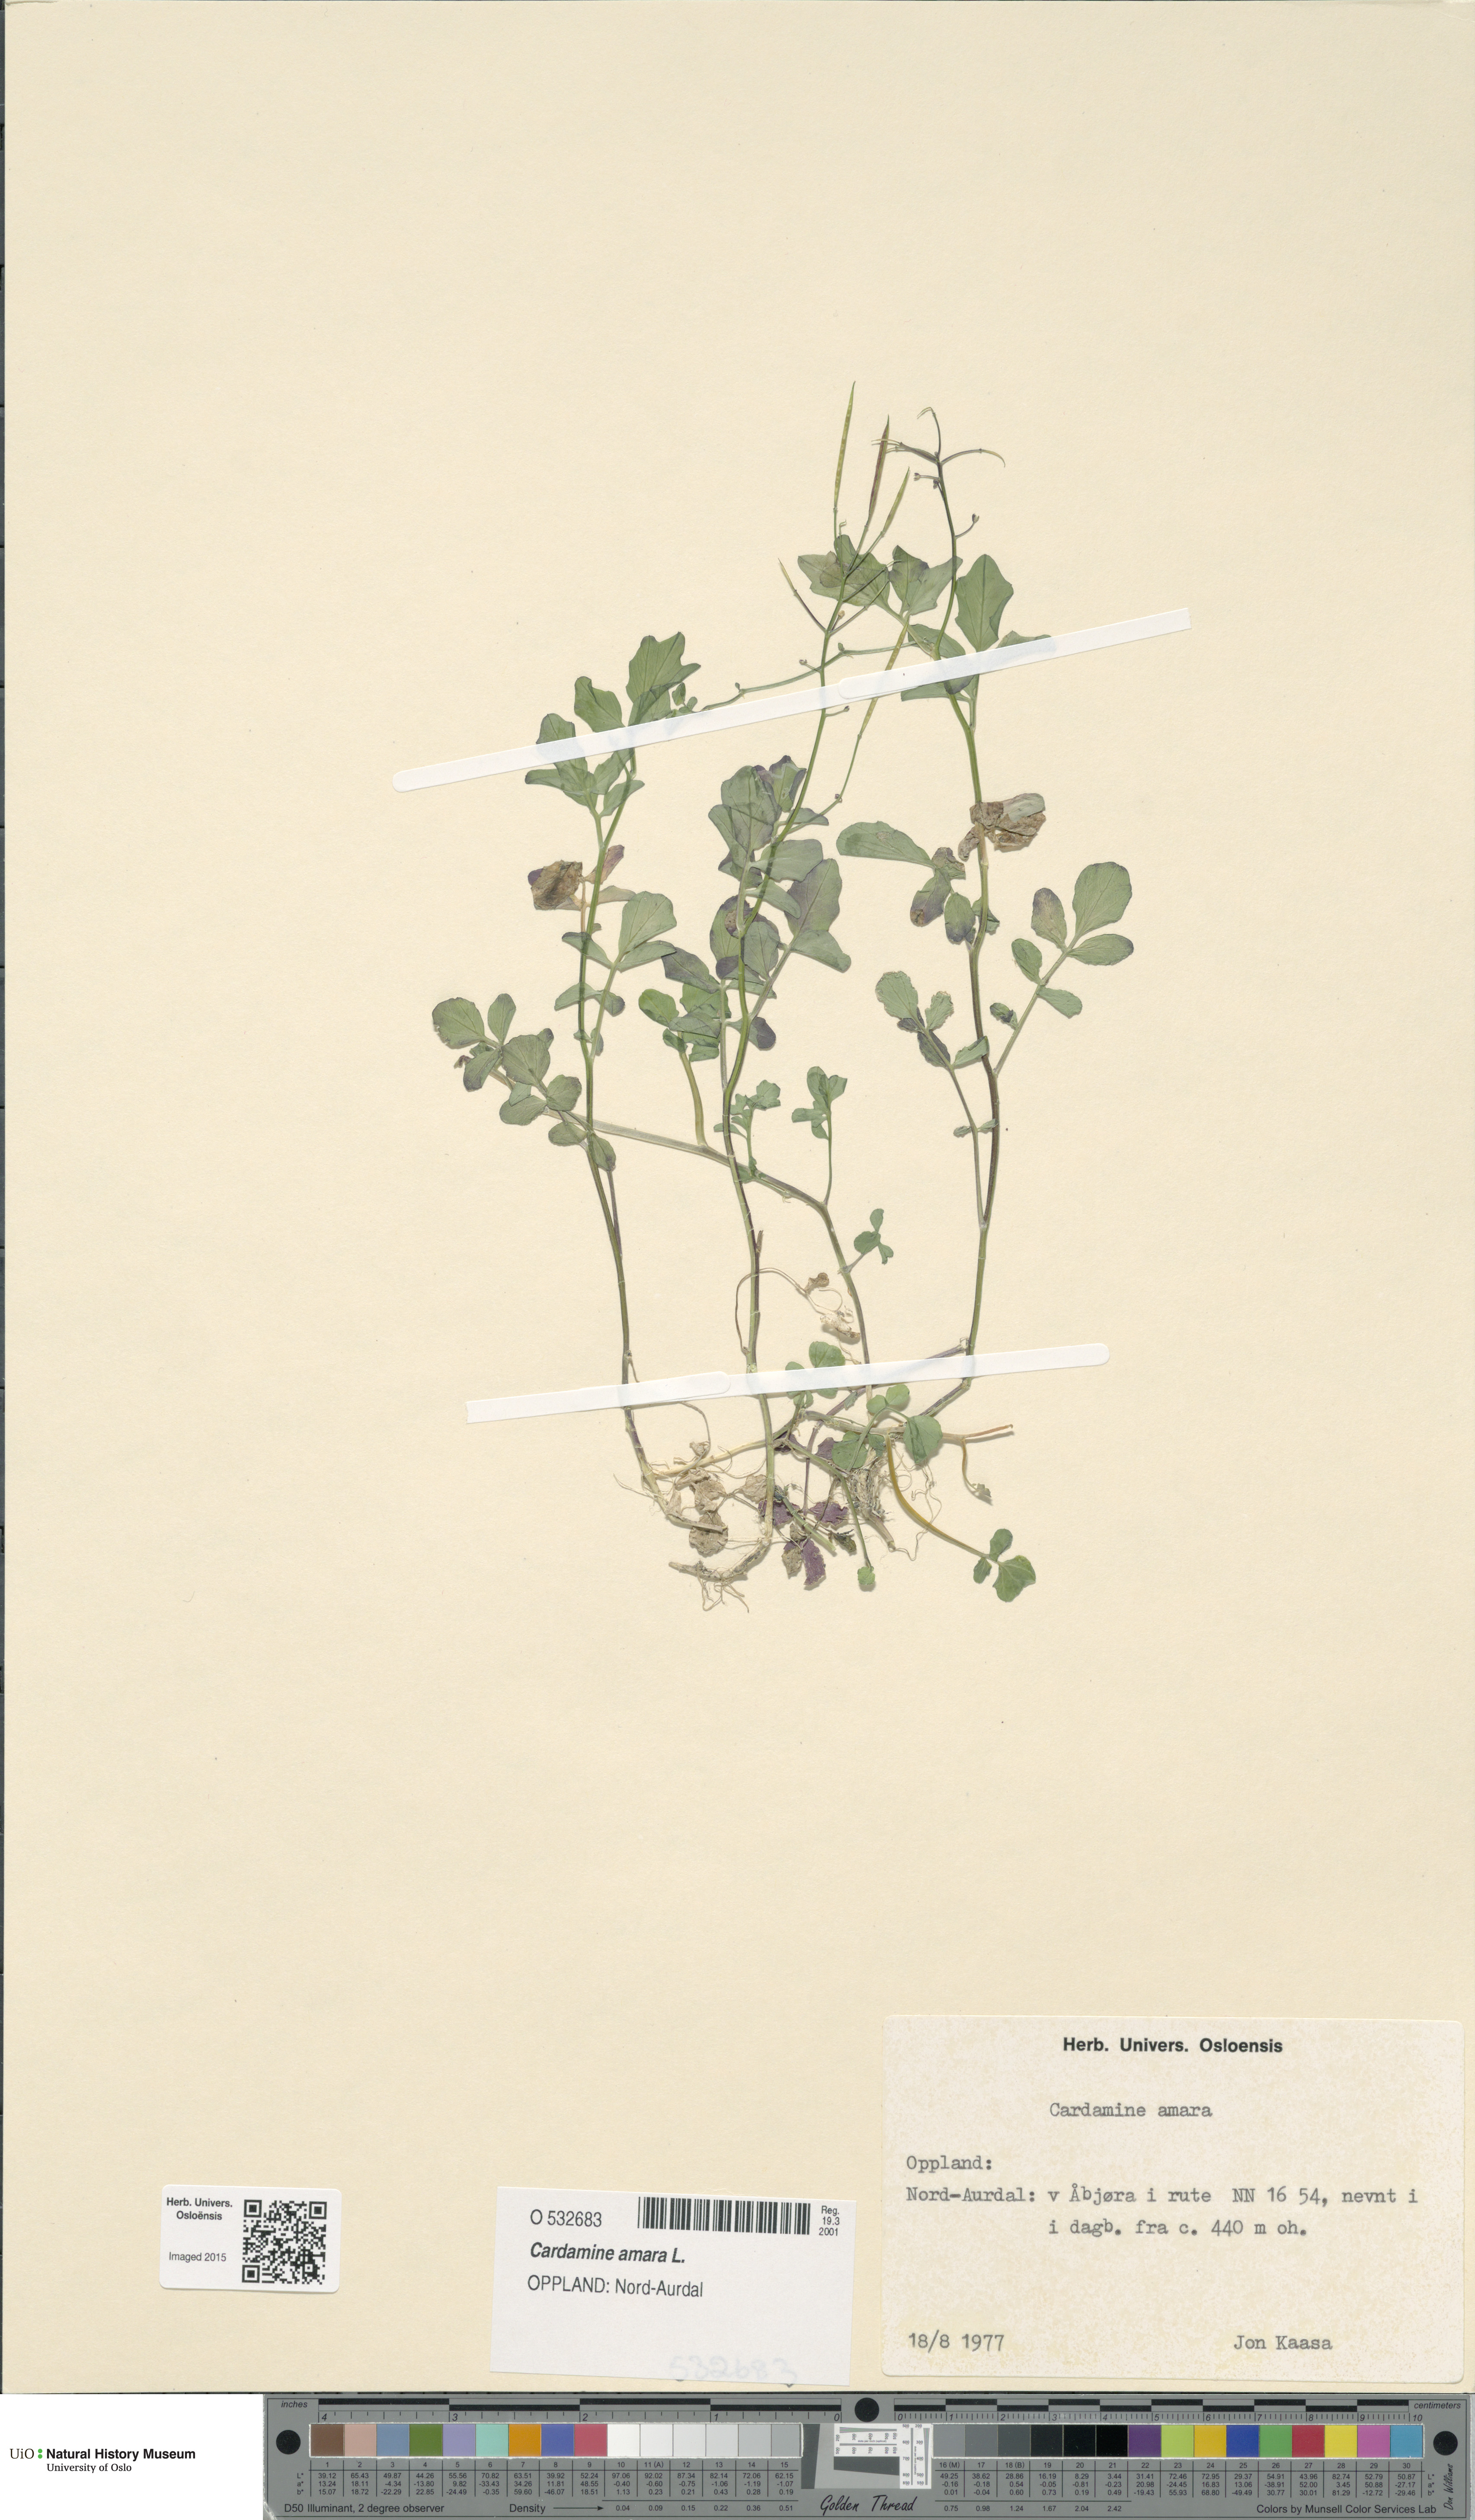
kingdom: Plantae
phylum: Tracheophyta
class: Magnoliopsida
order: Brassicales
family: Brassicaceae
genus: Cardamine
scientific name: Cardamine amara
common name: Large bitter-cress
